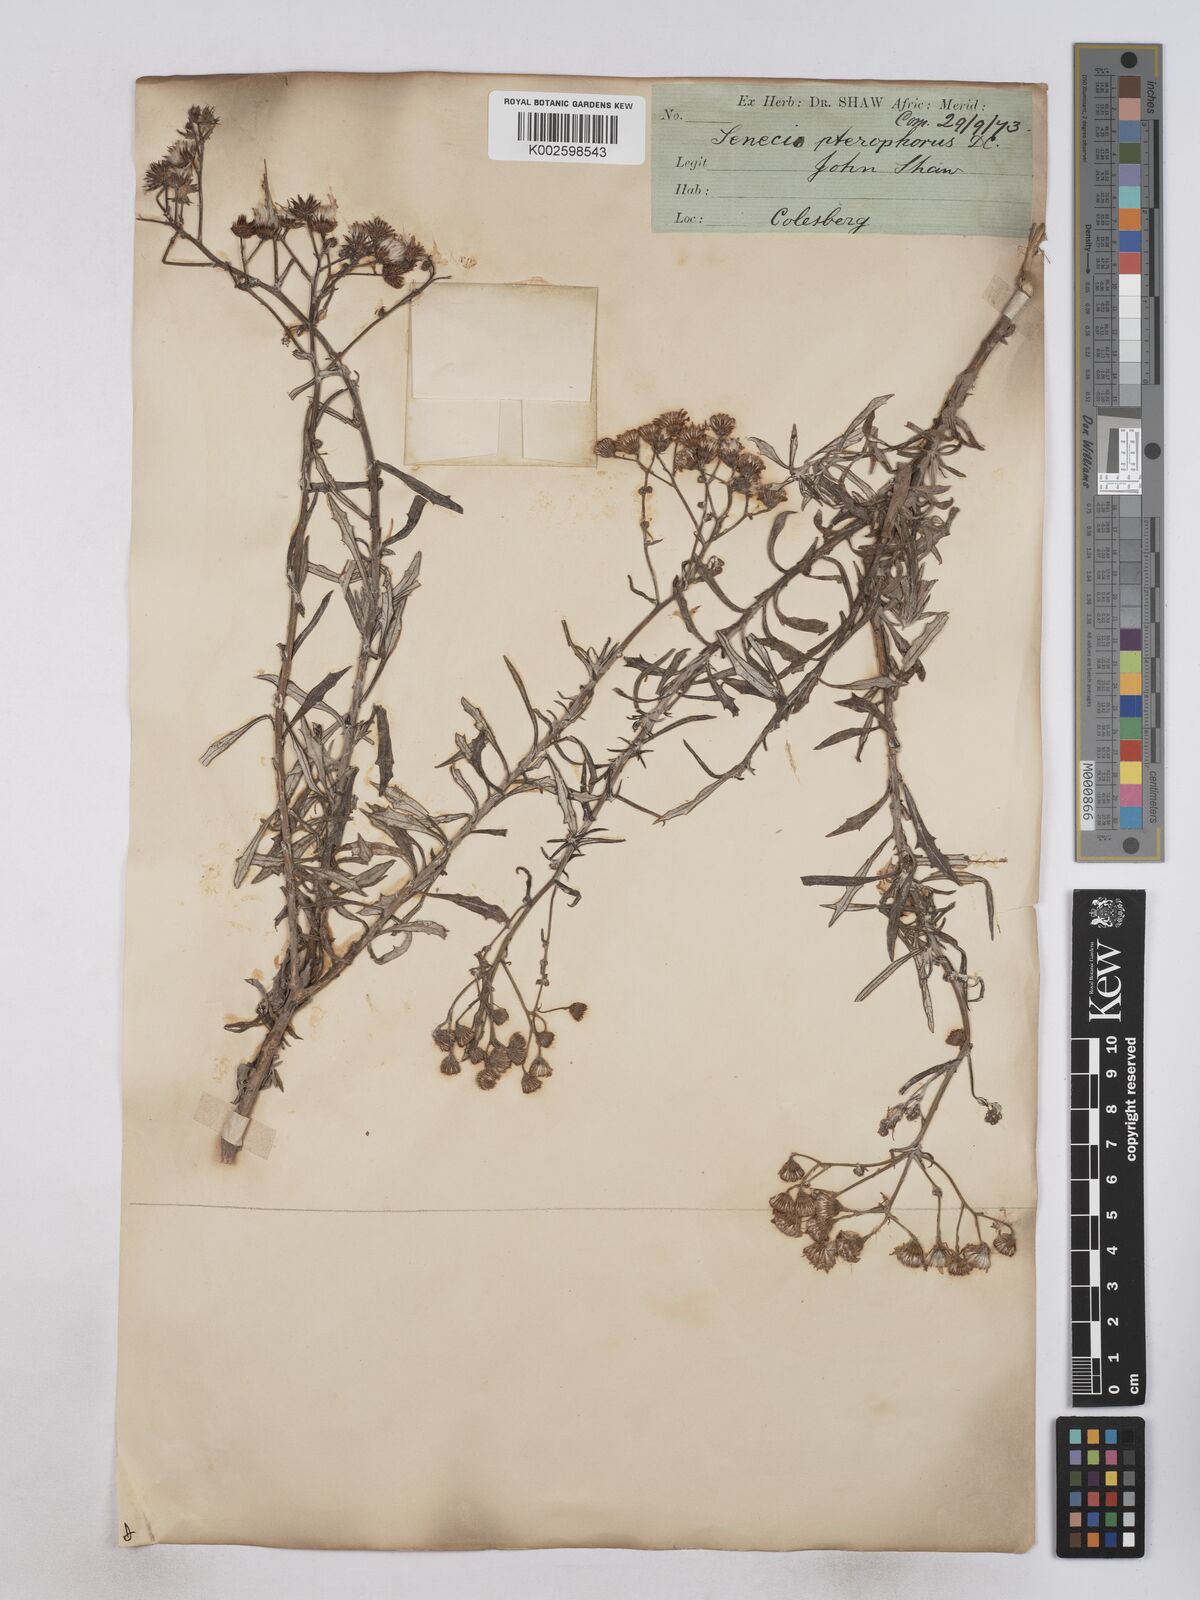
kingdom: Plantae
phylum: Tracheophyta
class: Magnoliopsida
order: Asterales
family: Asteraceae
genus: Senecio
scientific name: Senecio juniperinus
